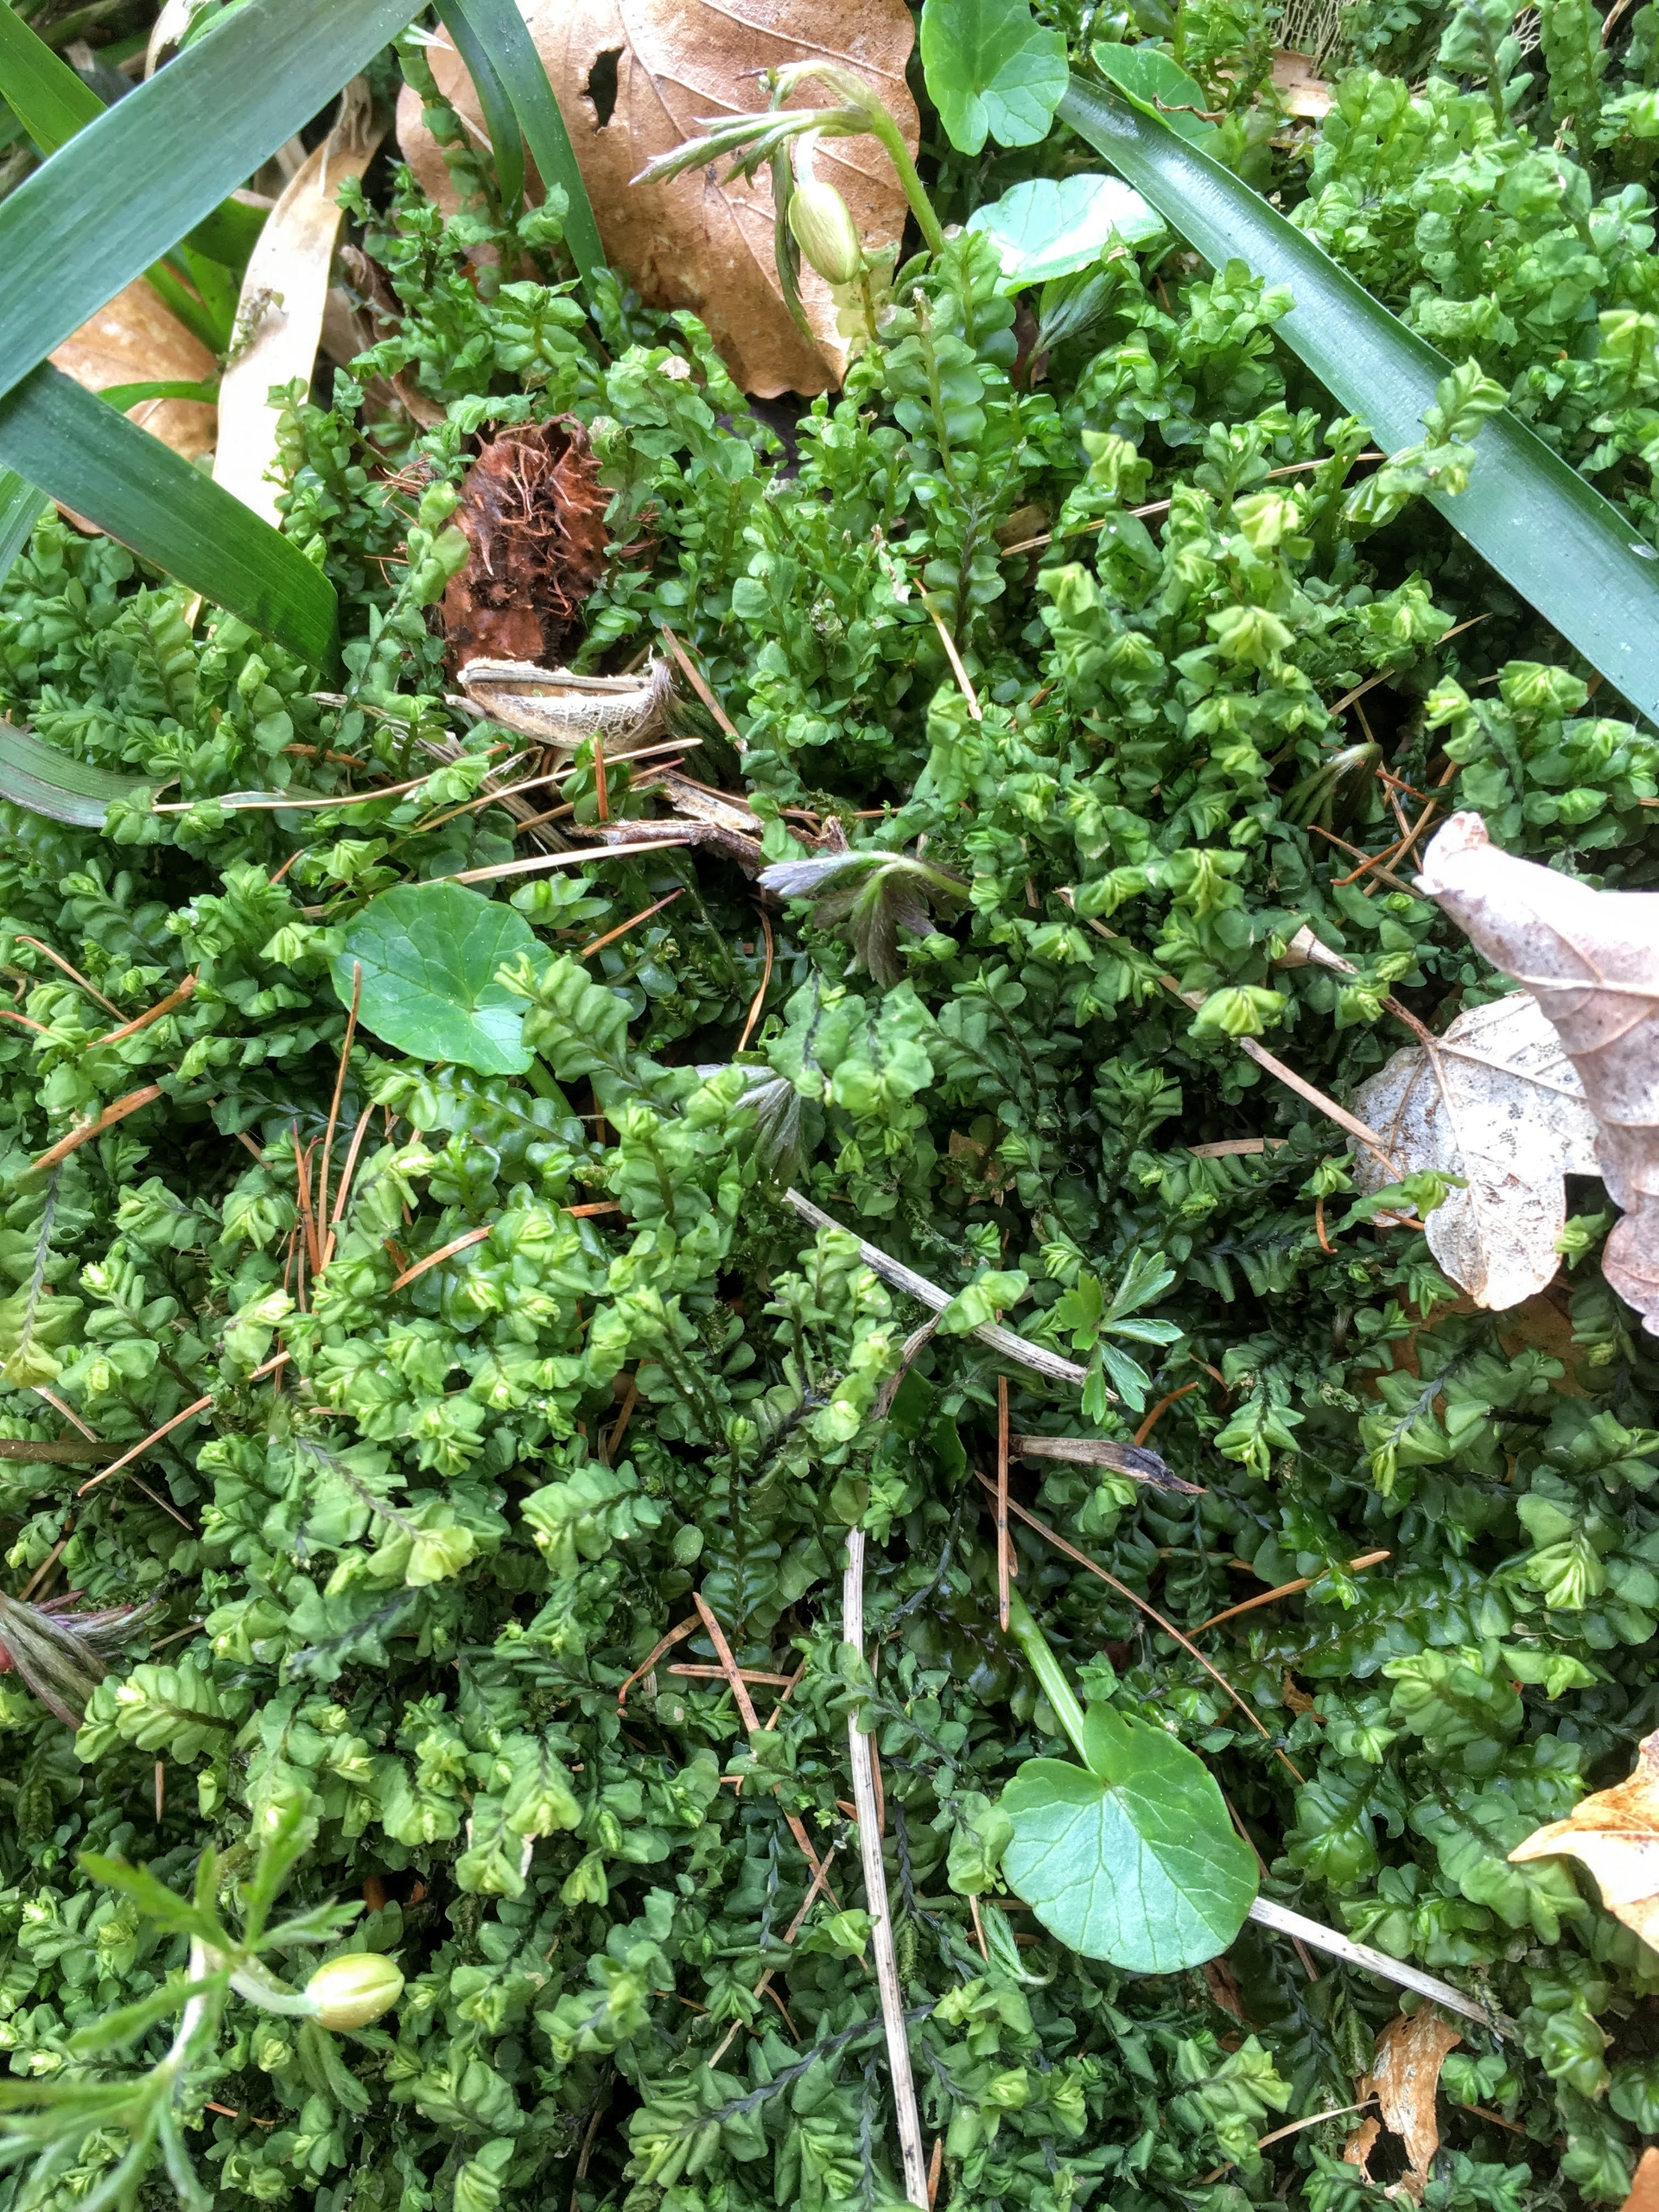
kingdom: Plantae
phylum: Marchantiophyta
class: Jungermanniopsida
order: Jungermanniales
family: Plagiochilaceae
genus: Plagiochila
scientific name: Plagiochila asplenioides
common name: Radeløv-hindeblad
